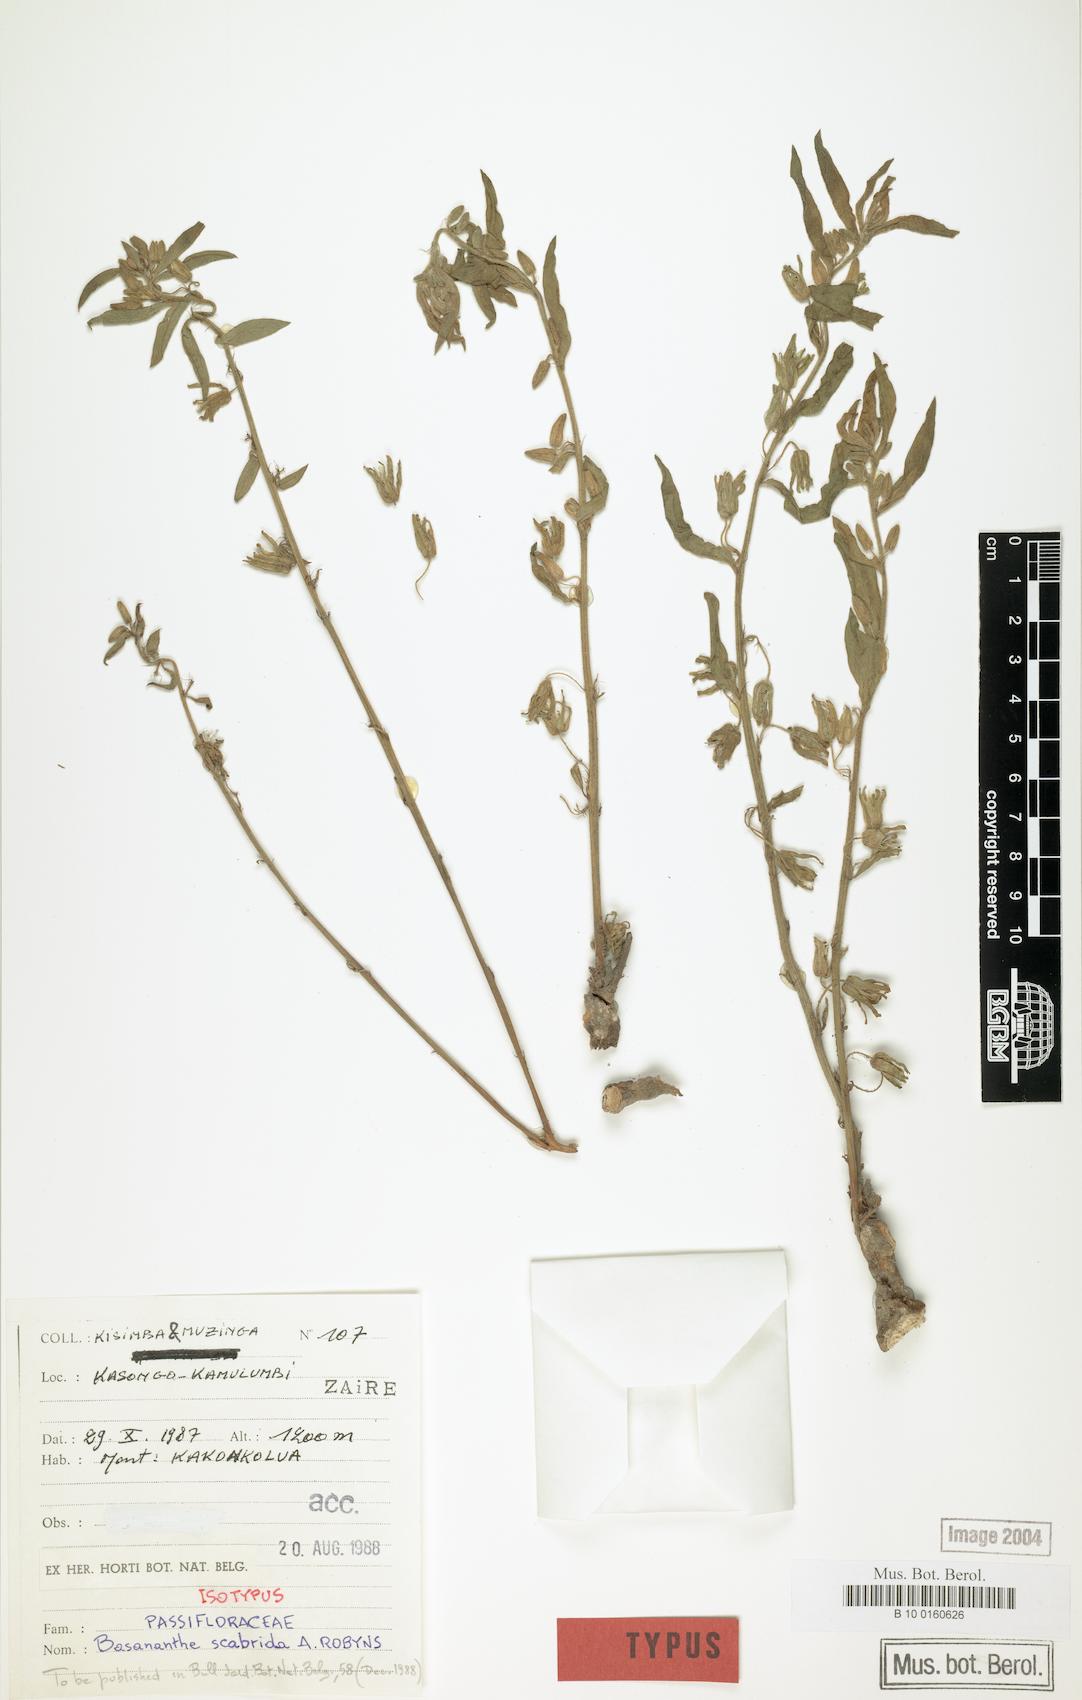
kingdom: Plantae
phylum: Tracheophyta
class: Magnoliopsida
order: Malpighiales
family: Passifloraceae
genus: Basananthe
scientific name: Basananthe
